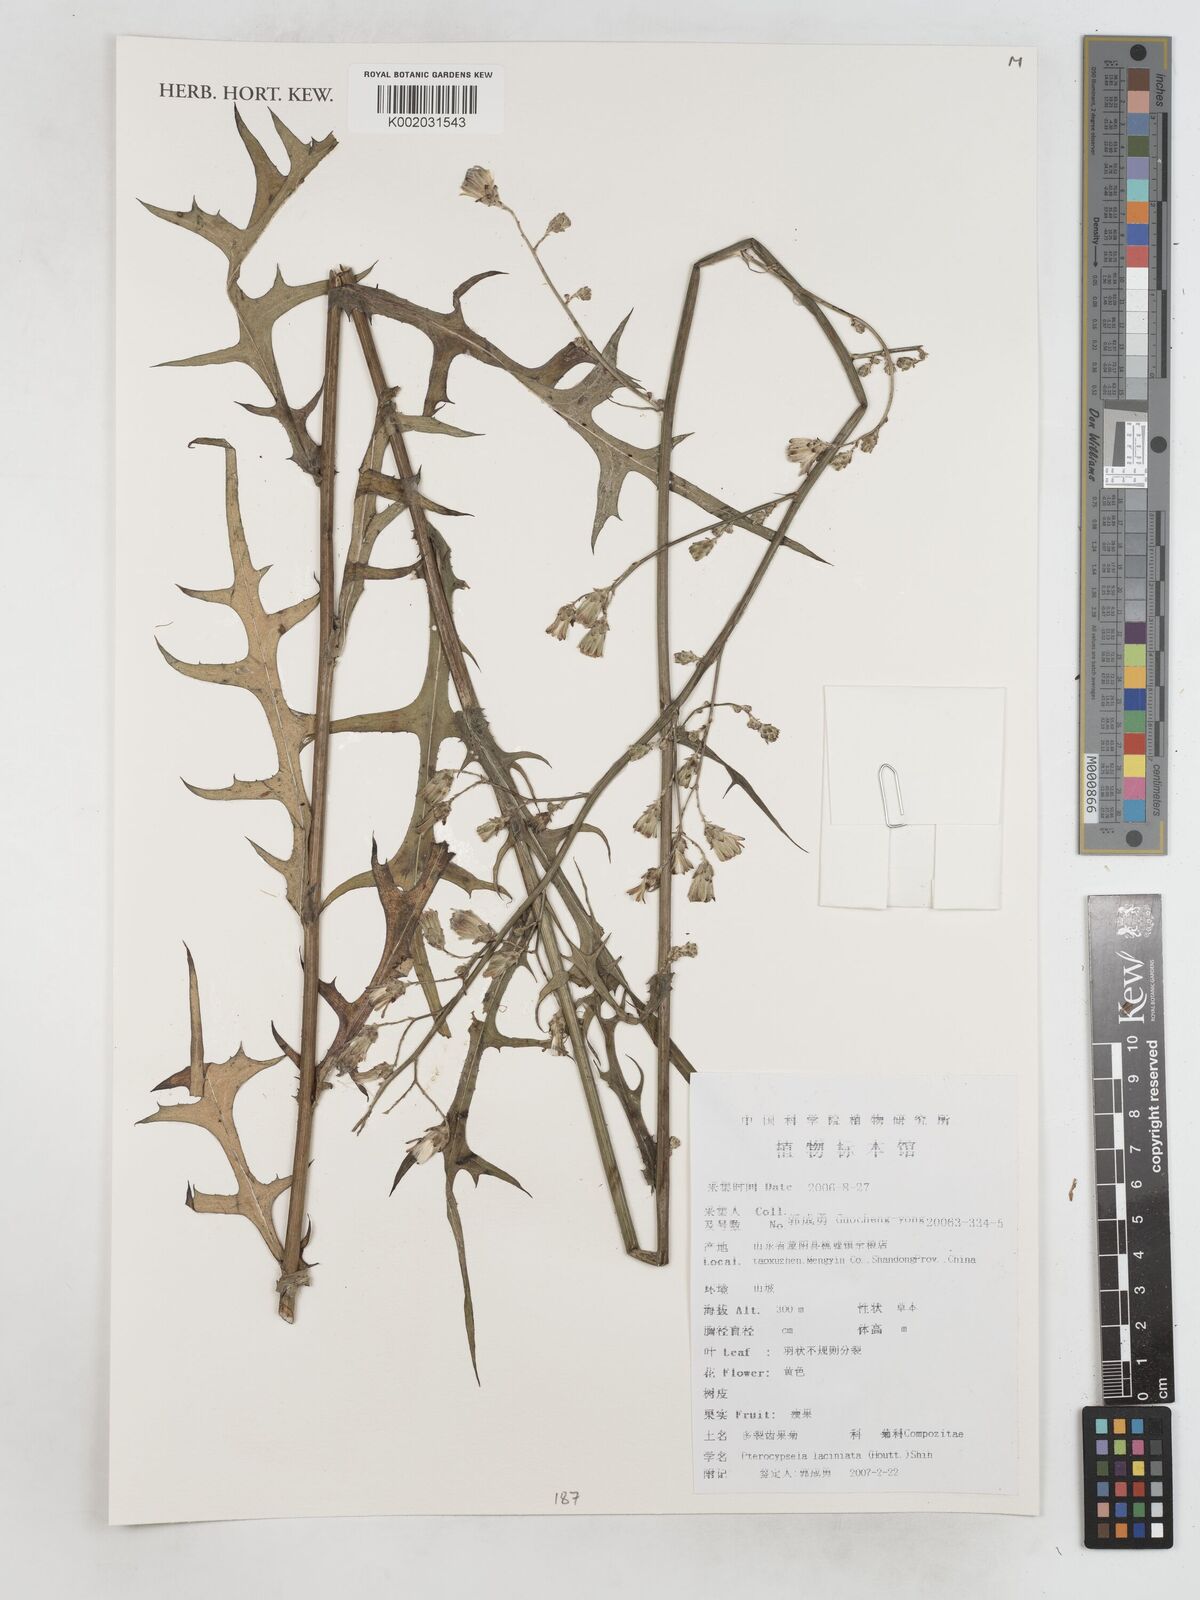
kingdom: Plantae
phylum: Tracheophyta
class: Magnoliopsida
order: Asterales
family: Asteraceae
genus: Lactuca
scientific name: Lactuca indica
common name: Wild lettuce
